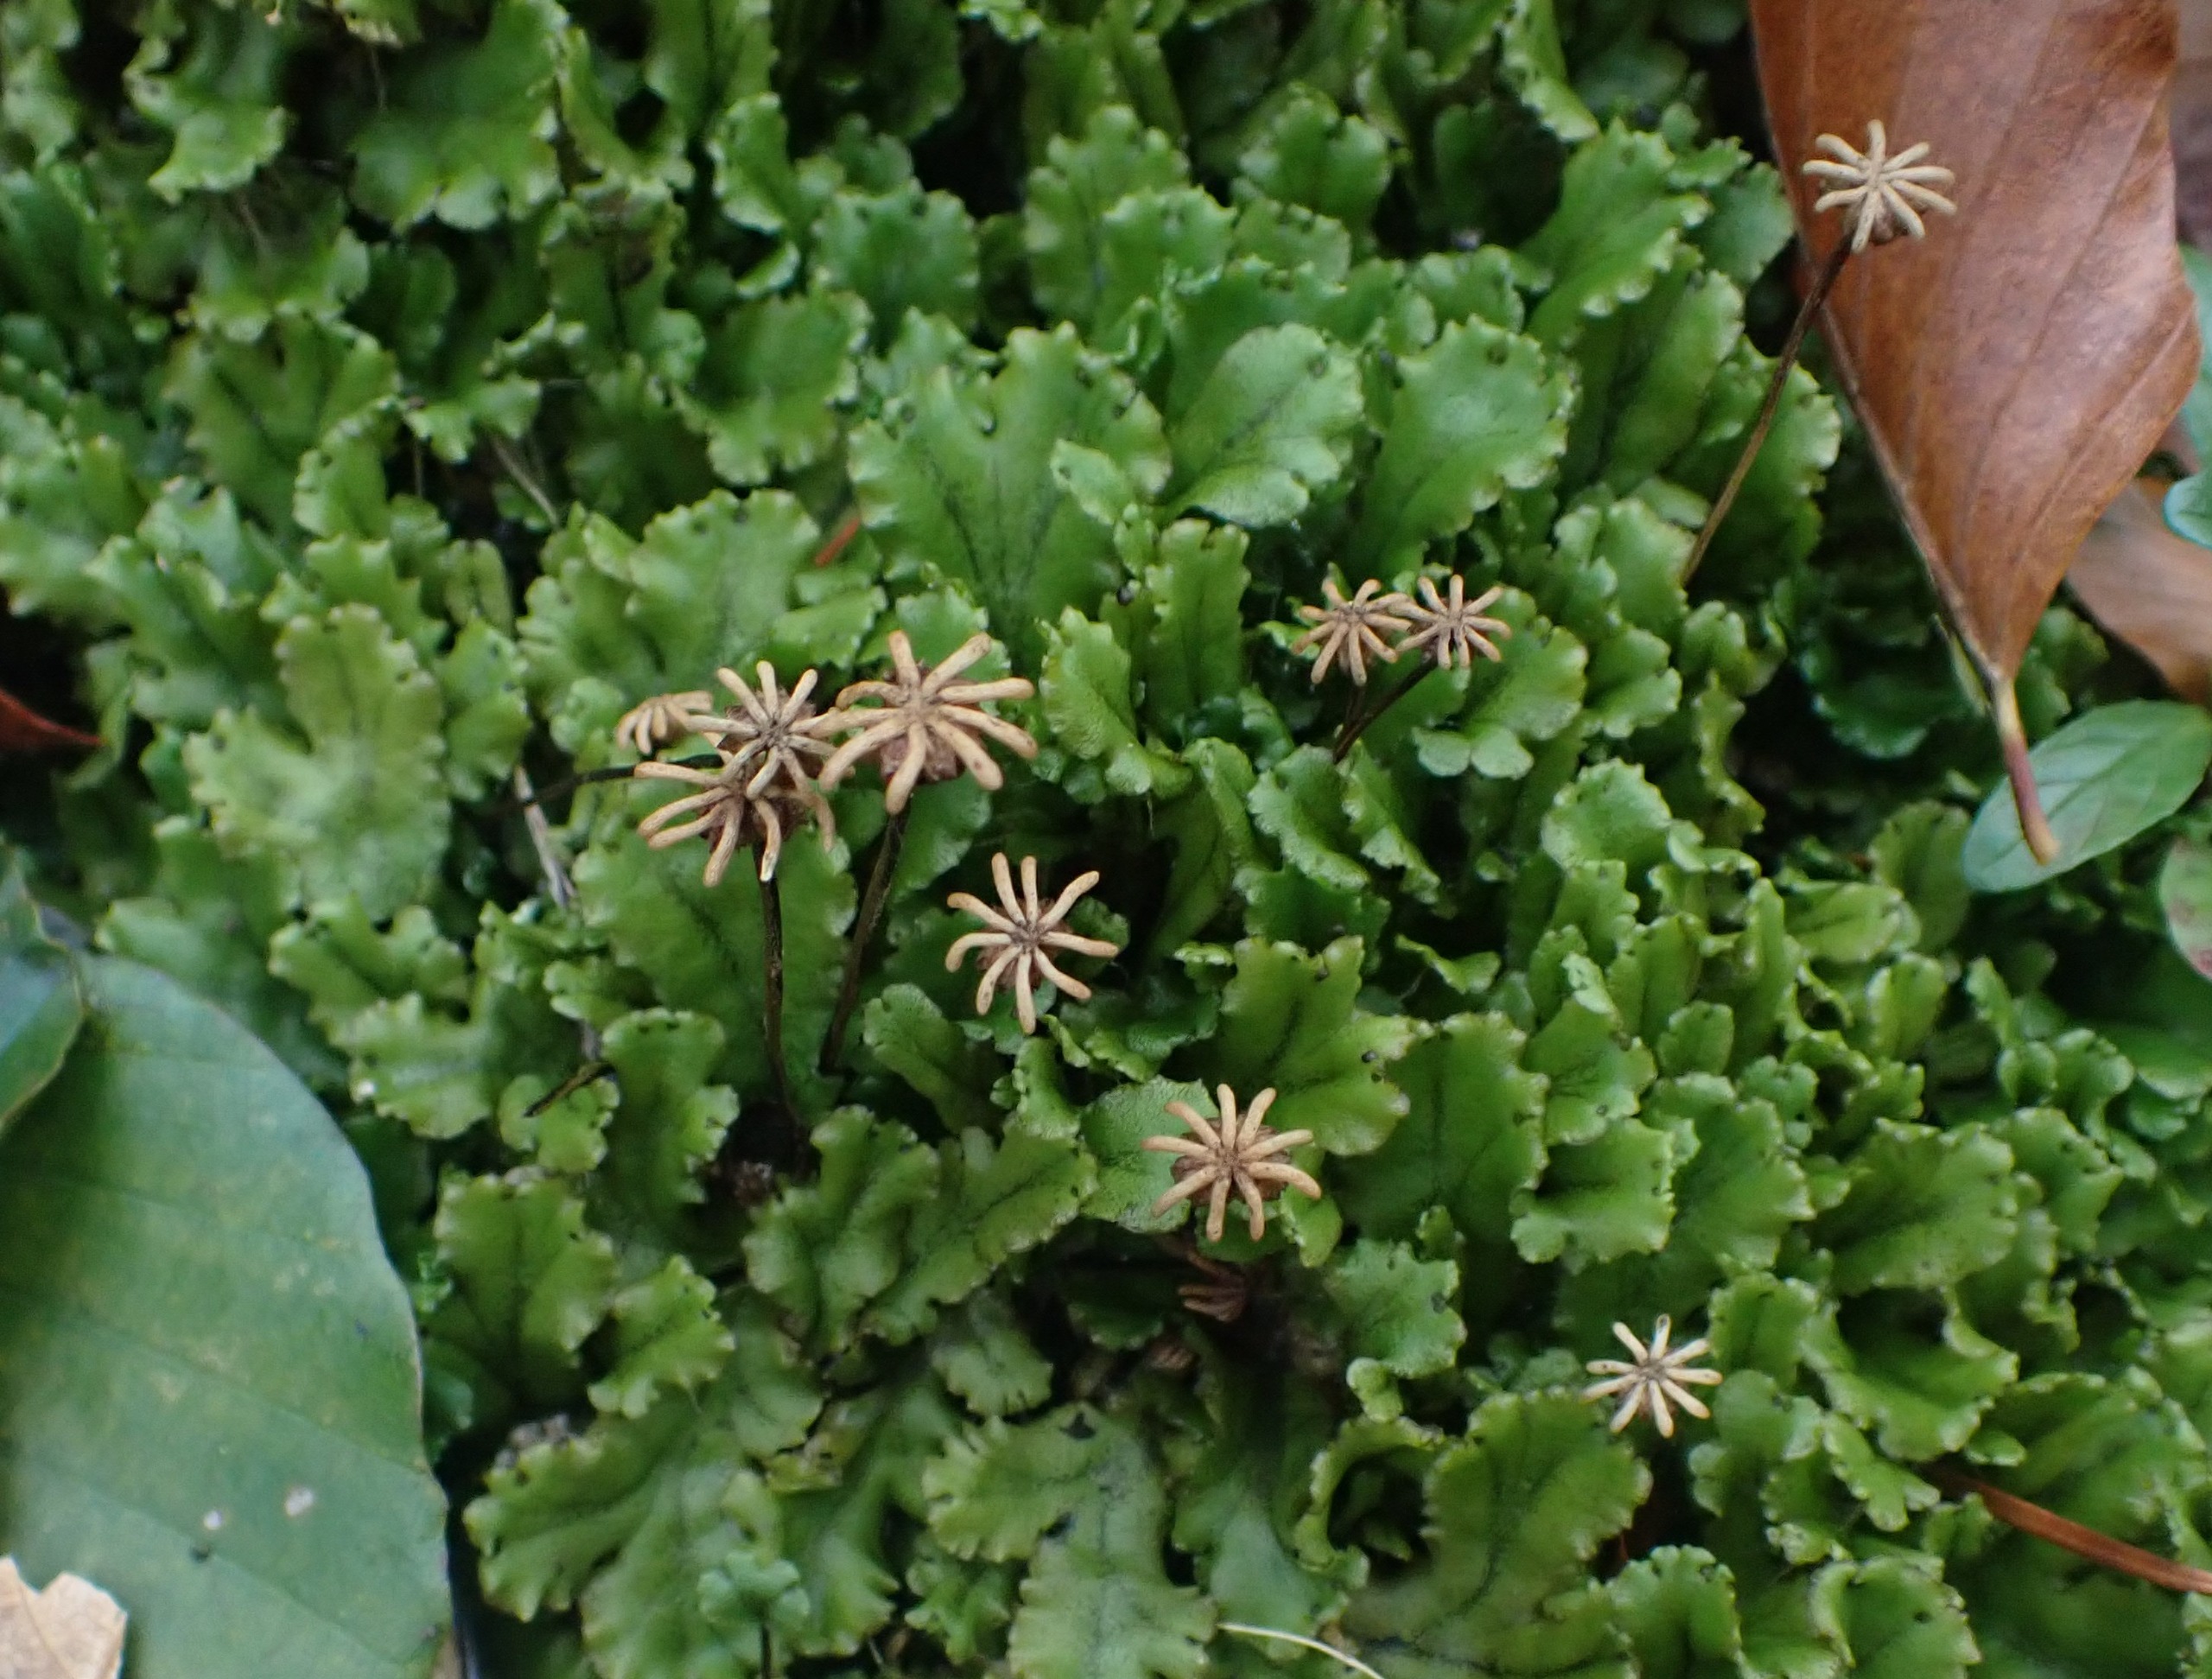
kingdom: Plantae
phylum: Marchantiophyta
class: Marchantiopsida
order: Marchantiales
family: Marchantiaceae
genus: Marchantia
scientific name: Marchantia polymorpha
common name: Almindelig lungemos (underart)
